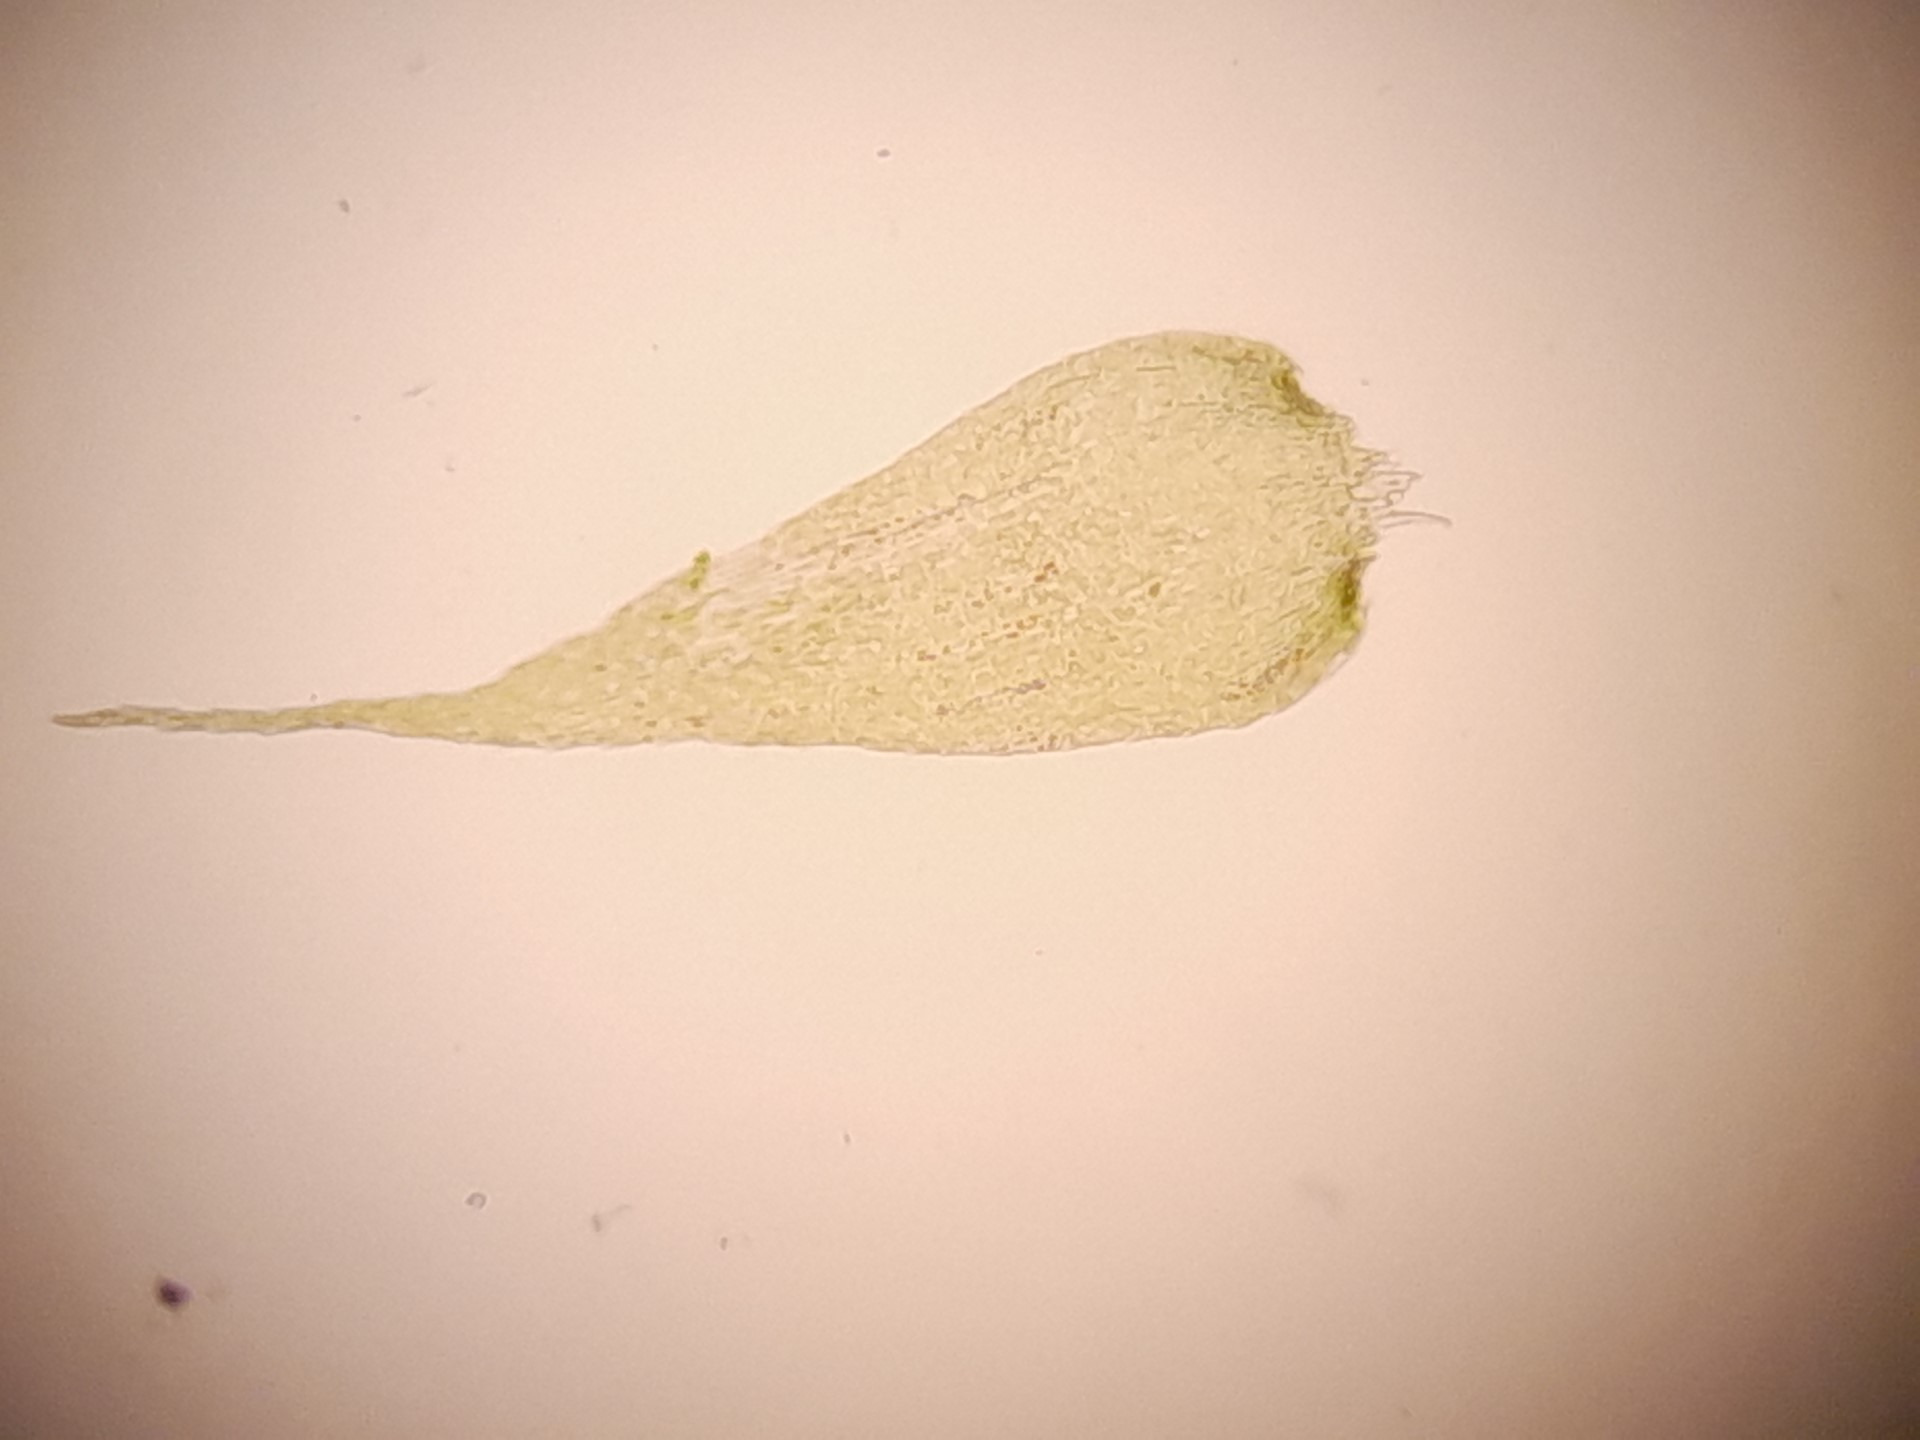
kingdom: Plantae
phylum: Bryophyta
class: Bryopsida
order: Hypnales
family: Plagiotheciaceae
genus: Herzogiella
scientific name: Herzogiella seligeri
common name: Stub-pølsekapsel
